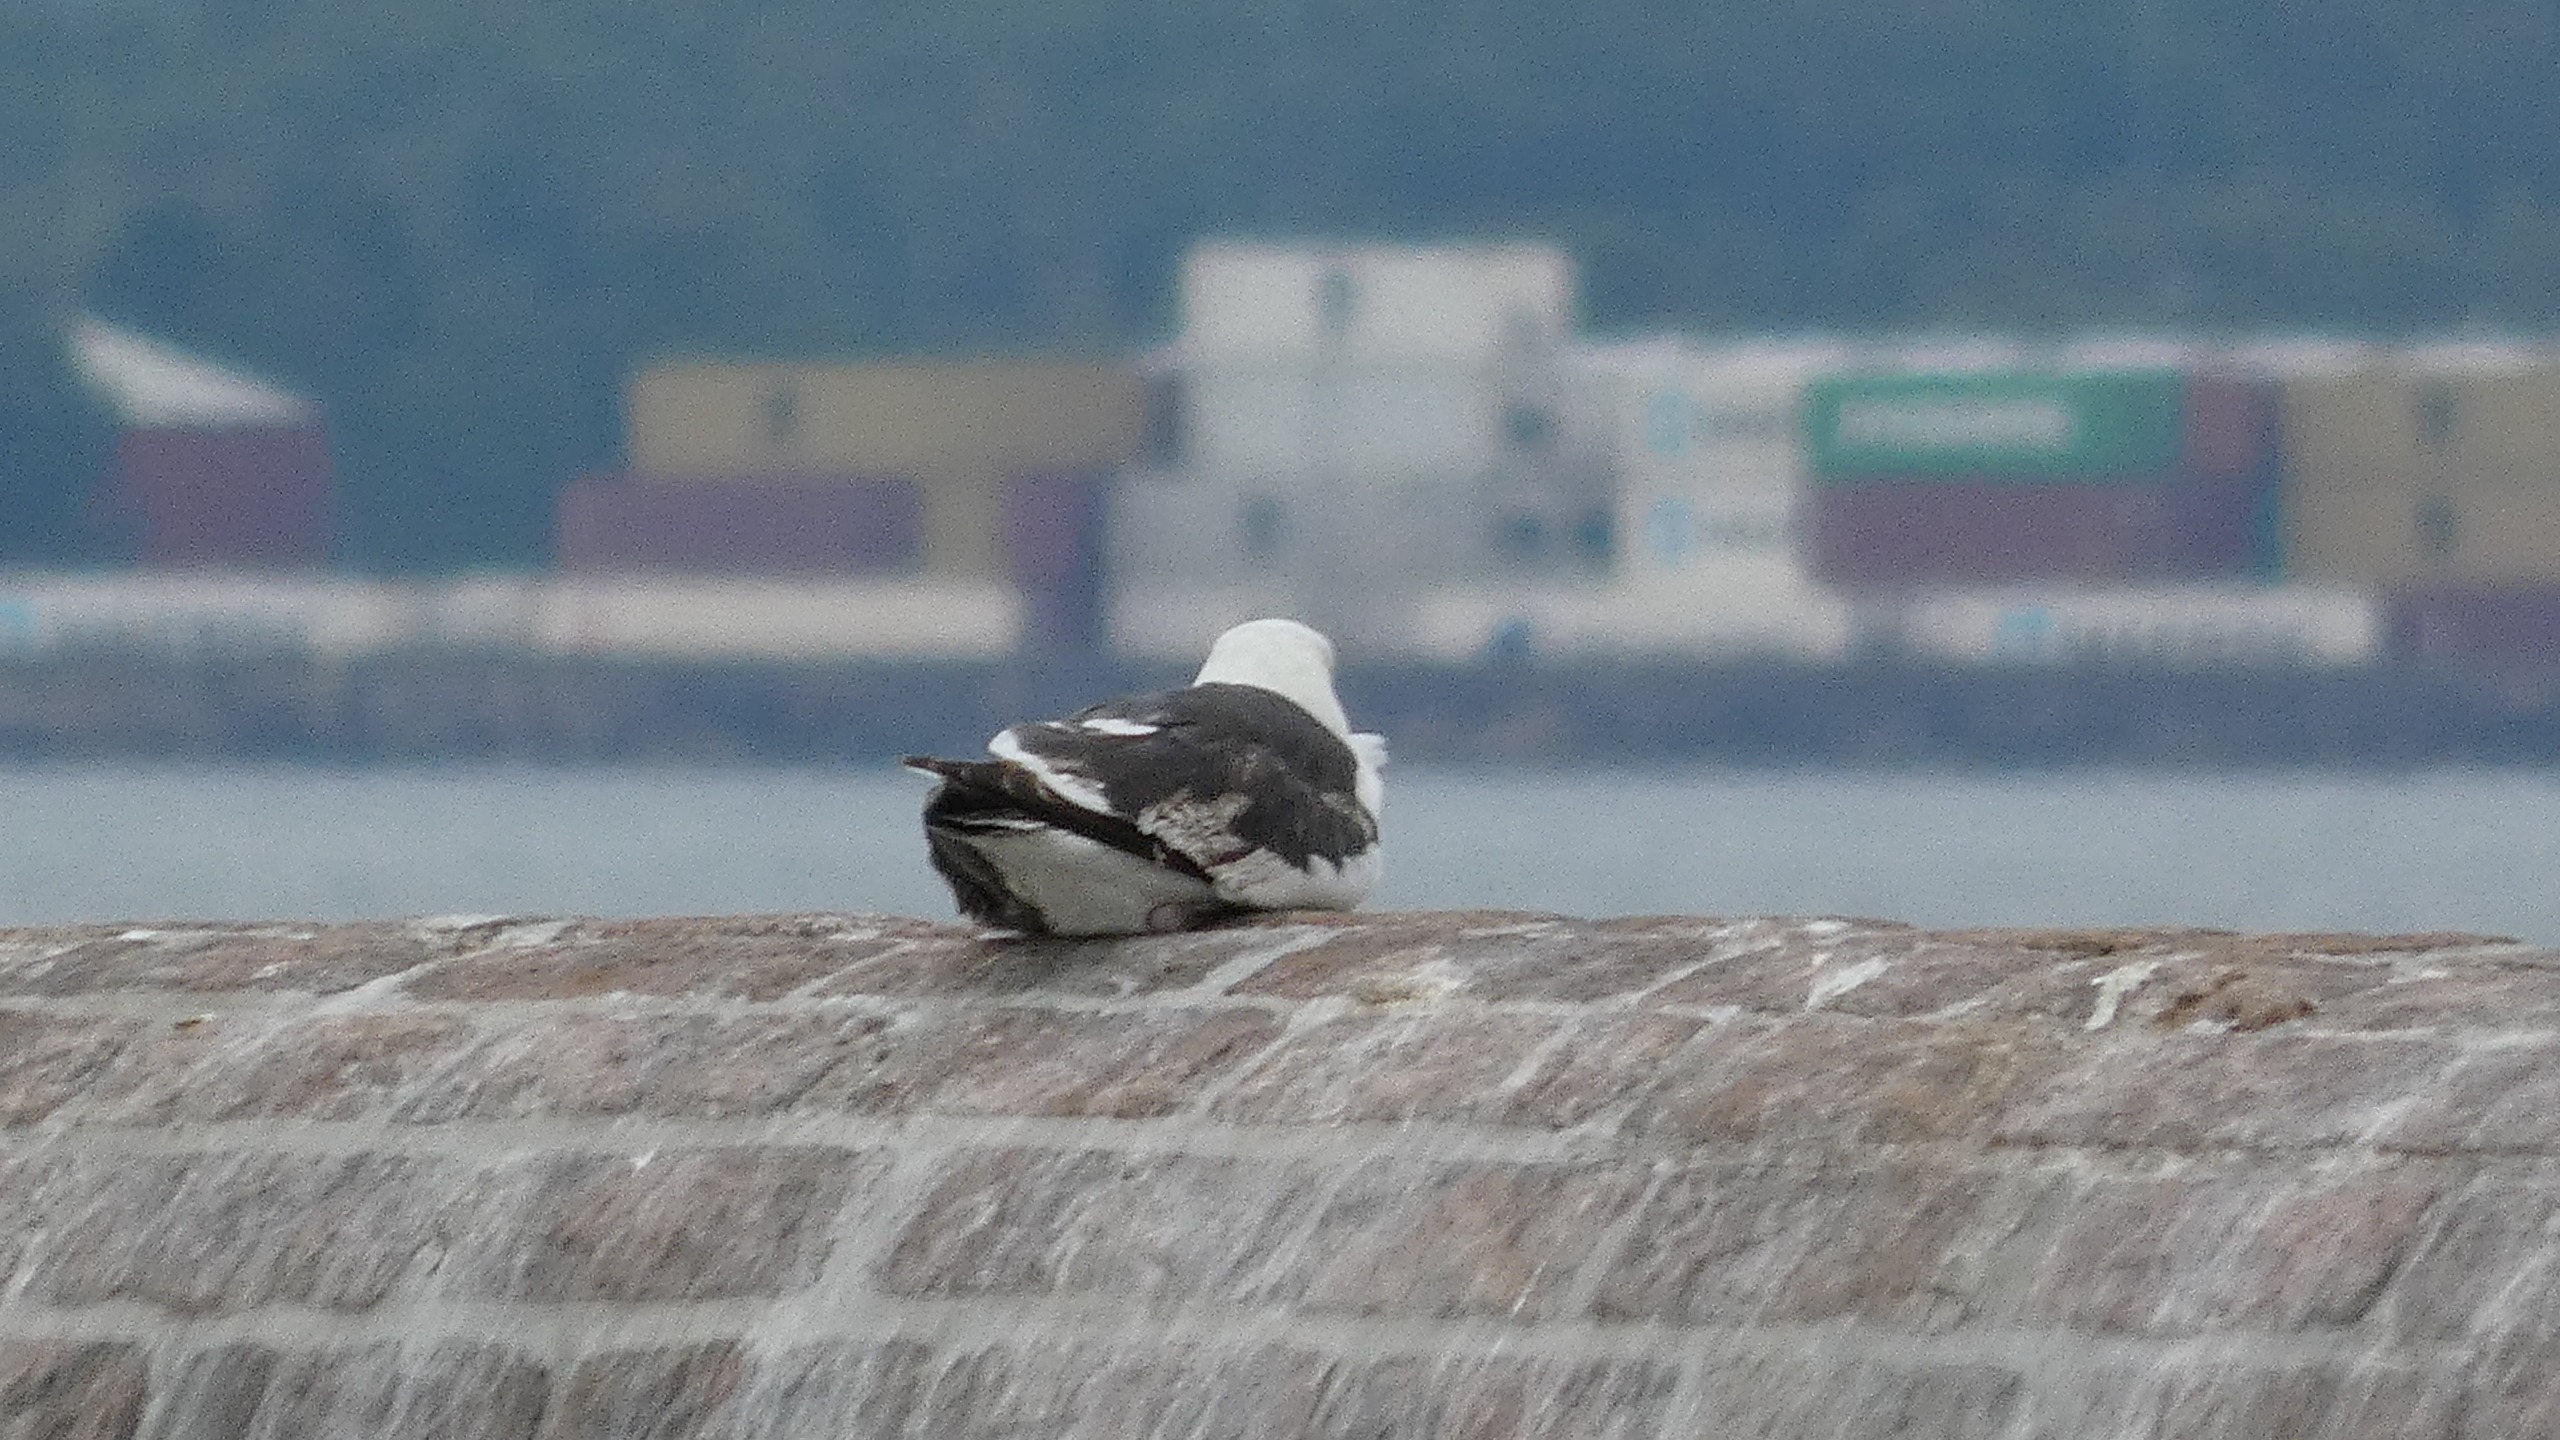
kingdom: Animalia
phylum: Chordata
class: Aves
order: Charadriiformes
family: Laridae
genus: Larus
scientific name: Larus marinus
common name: Svartbag
